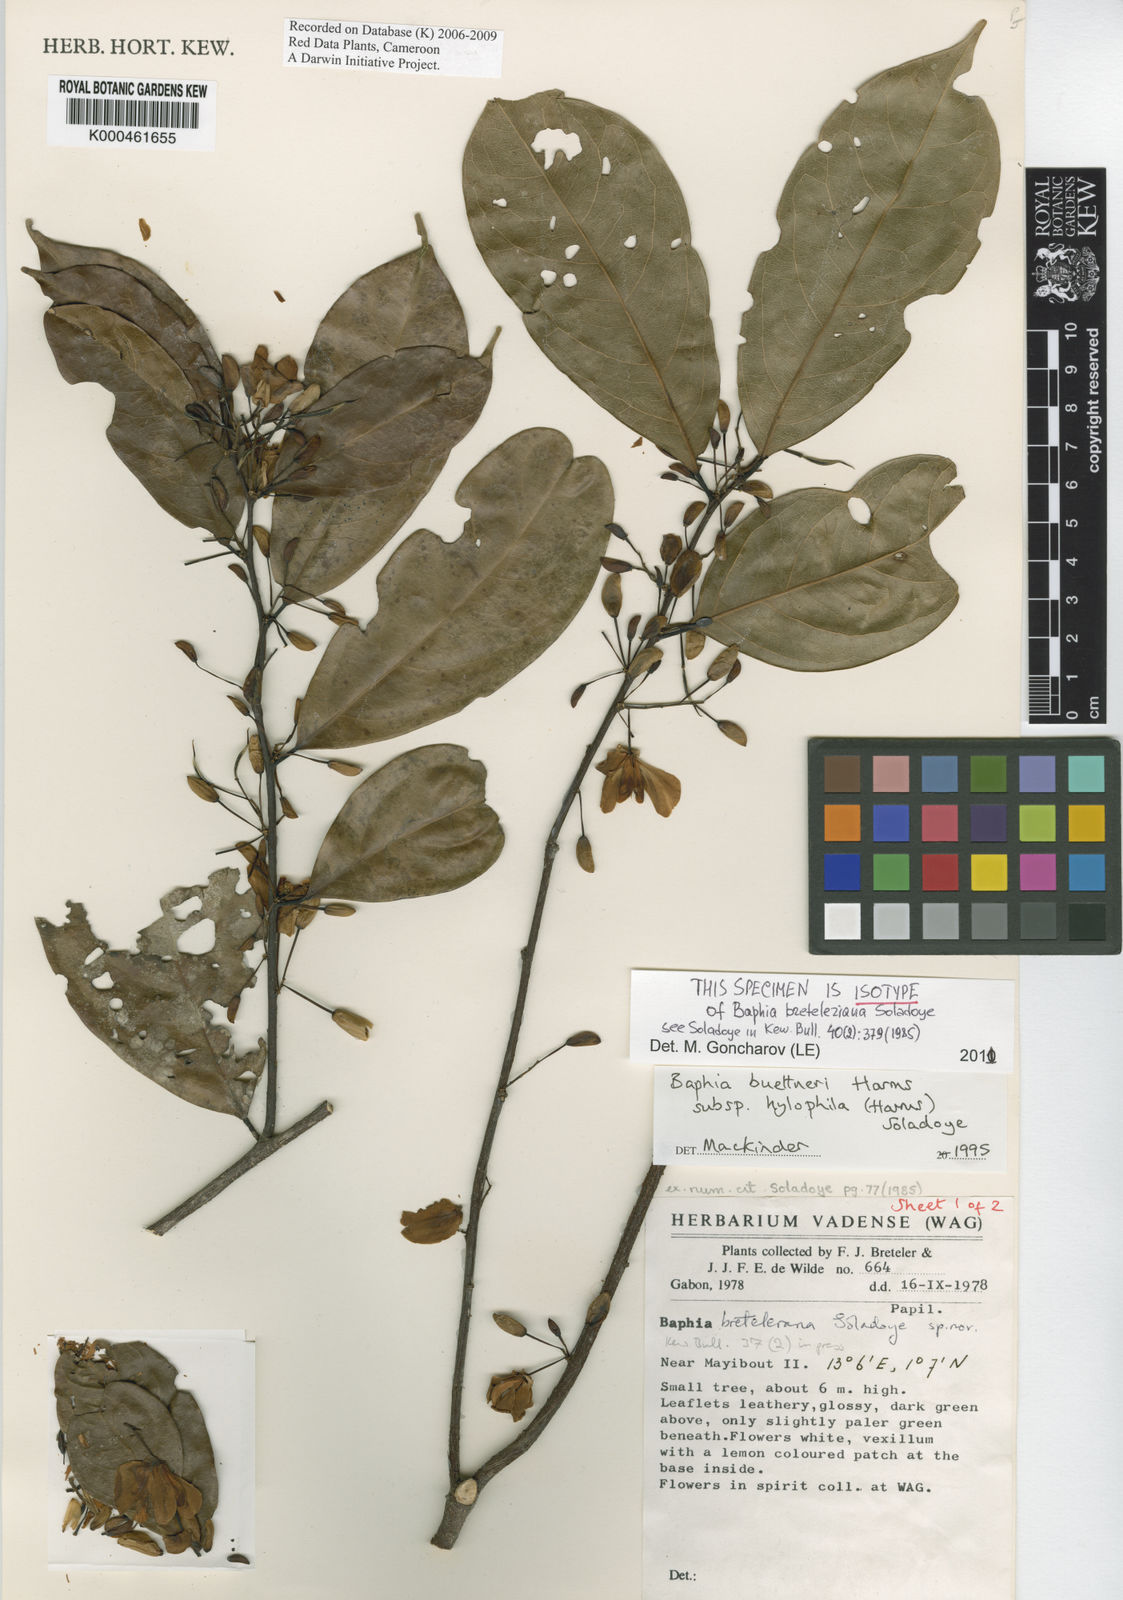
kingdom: Plantae
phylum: Tracheophyta
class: Magnoliopsida
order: Fabales
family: Fabaceae
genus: Baphia
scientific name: Baphia leptostemma
